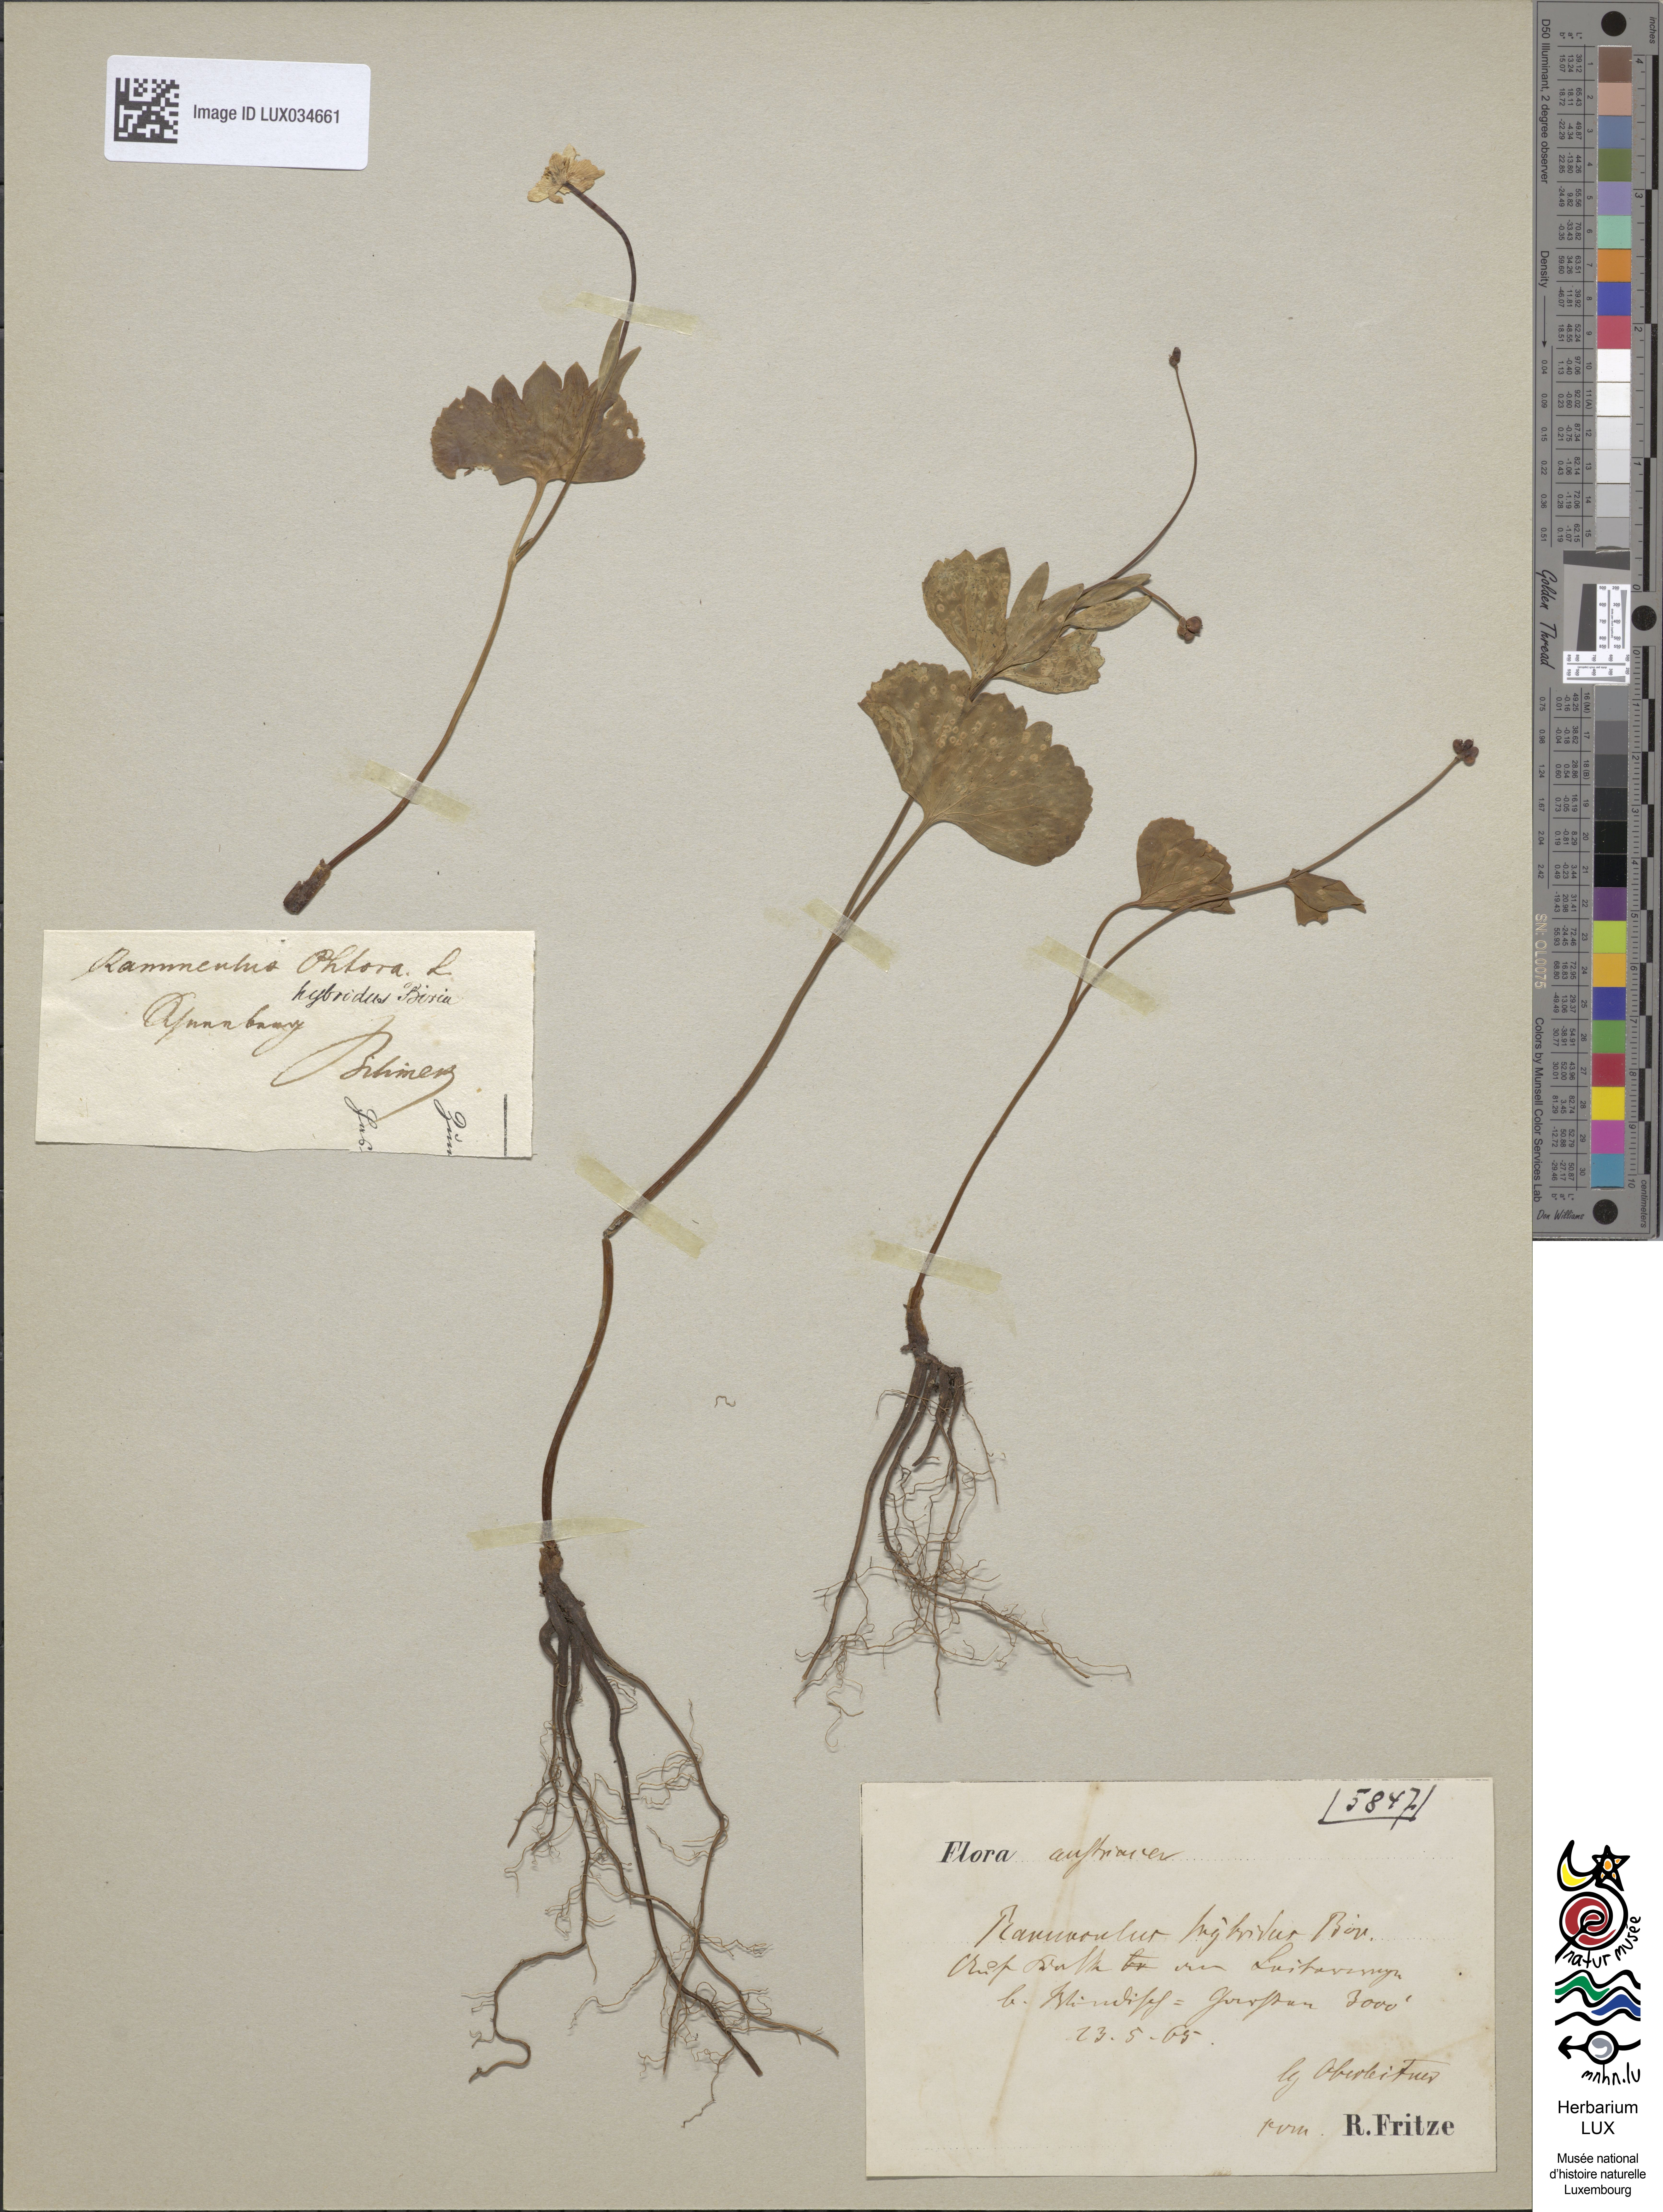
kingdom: Plantae
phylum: Tracheophyta
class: Magnoliopsida
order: Ranunculales
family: Ranunculaceae
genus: Ranunculus
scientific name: Ranunculus hybridus
